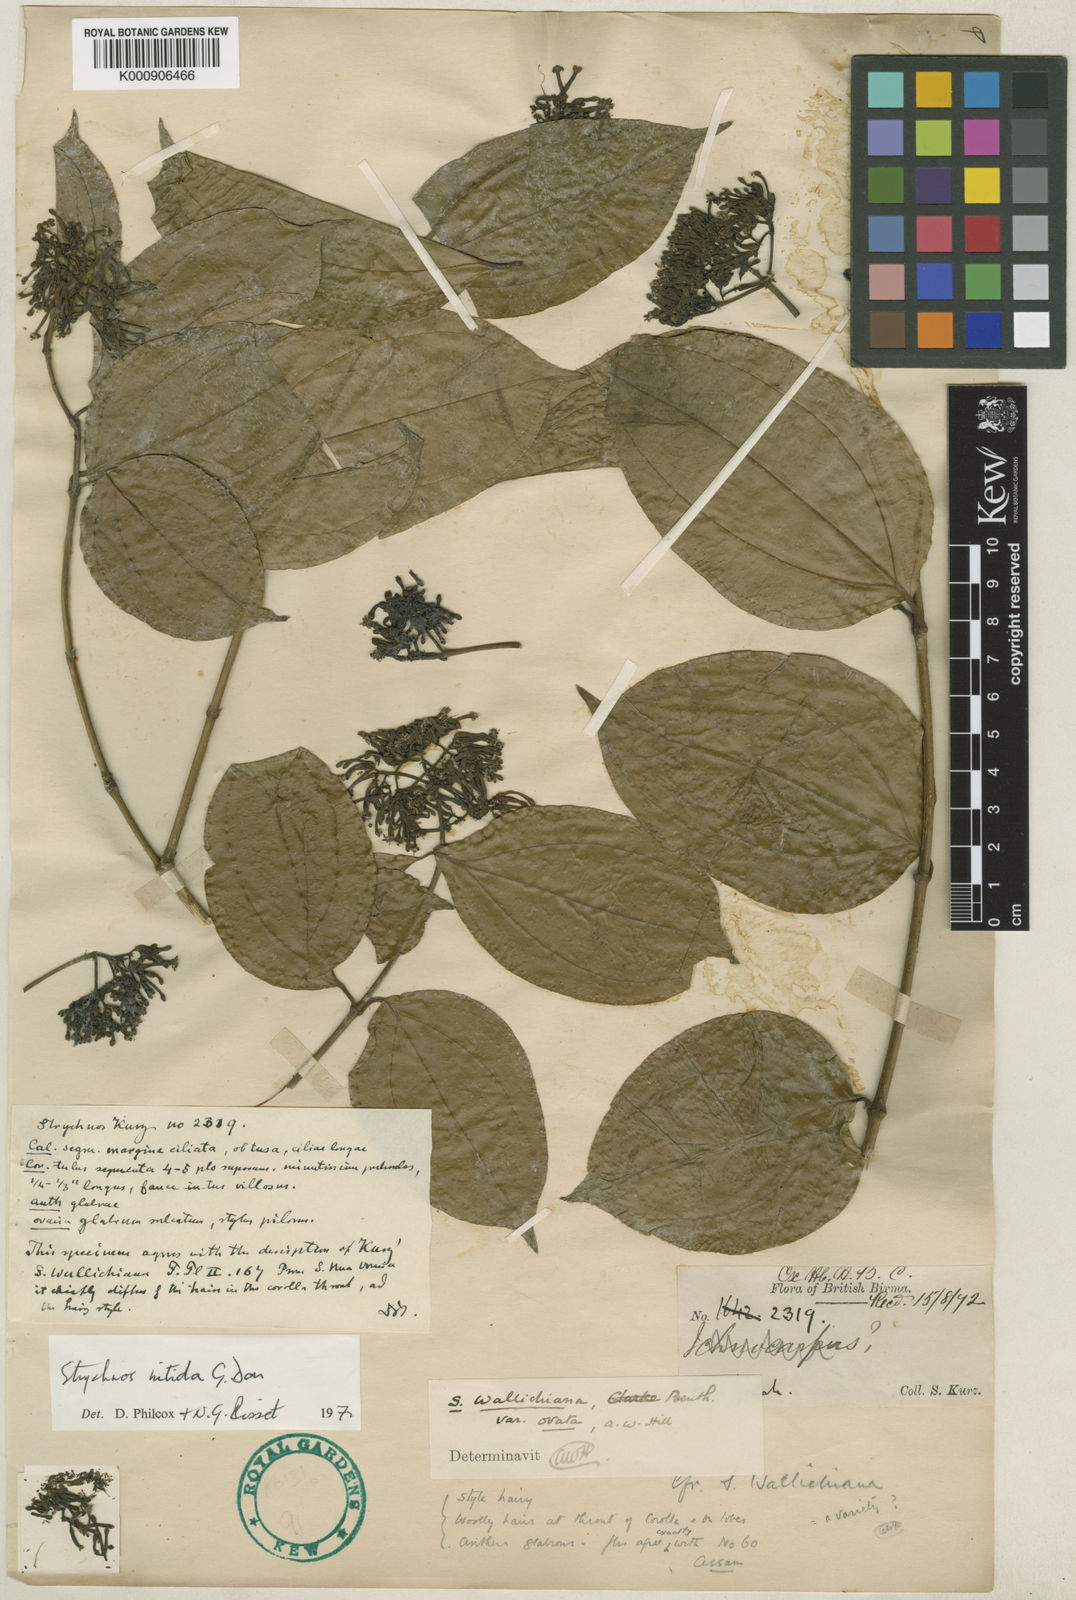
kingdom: Plantae
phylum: Tracheophyta
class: Magnoliopsida
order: Gentianales
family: Loganiaceae
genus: Strychnos
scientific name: Strychnos nitida
